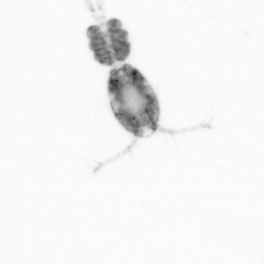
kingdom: Animalia
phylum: Arthropoda
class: Copepoda
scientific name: Copepoda
